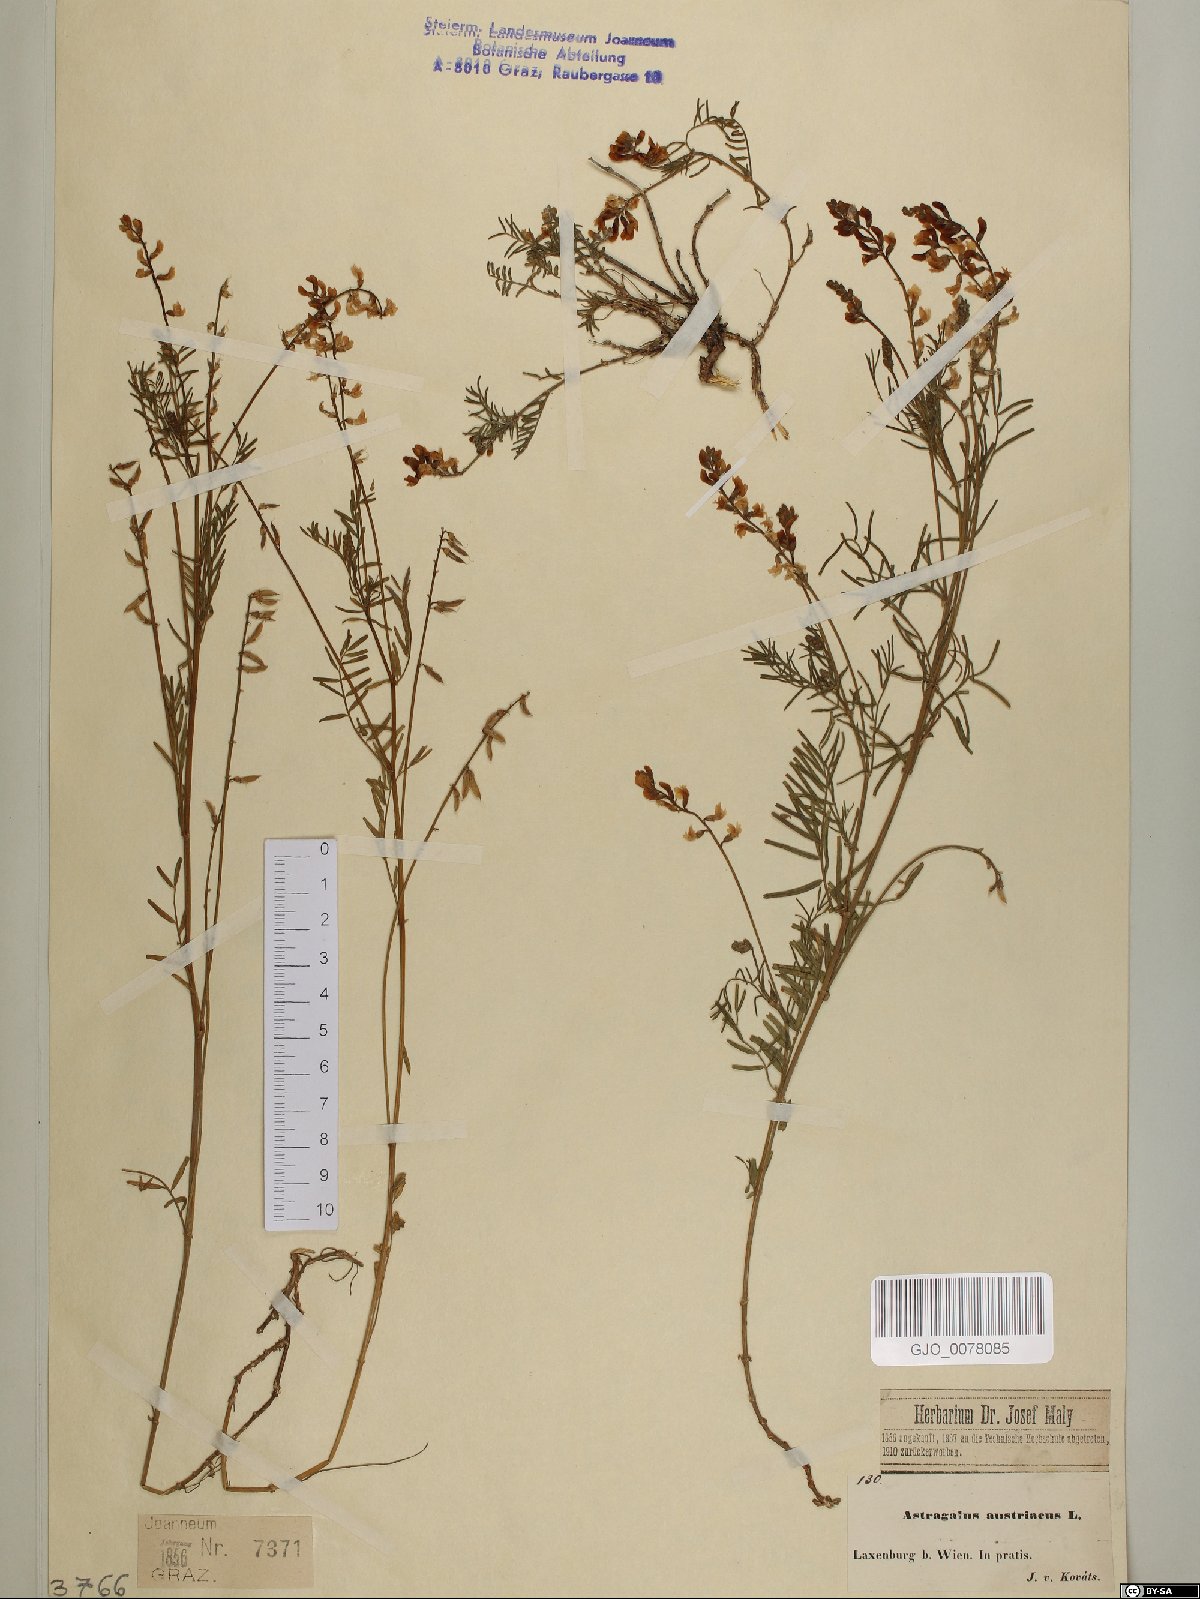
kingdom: Plantae
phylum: Tracheophyta
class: Magnoliopsida
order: Fabales
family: Fabaceae
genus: Astragalus
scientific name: Astragalus austriacus
